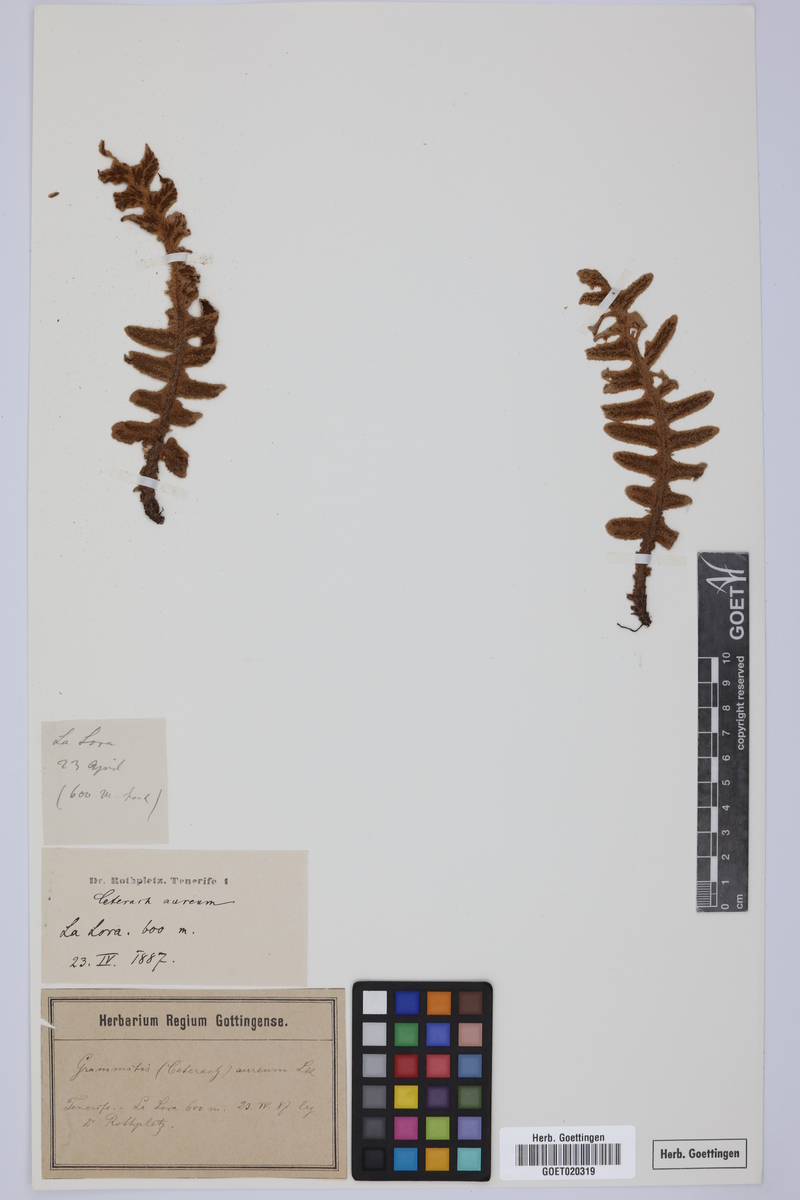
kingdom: Plantae
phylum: Tracheophyta
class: Polypodiopsida
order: Polypodiales
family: Aspleniaceae
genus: Asplenium
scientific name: Asplenium aureum
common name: Golden rustyback fern
